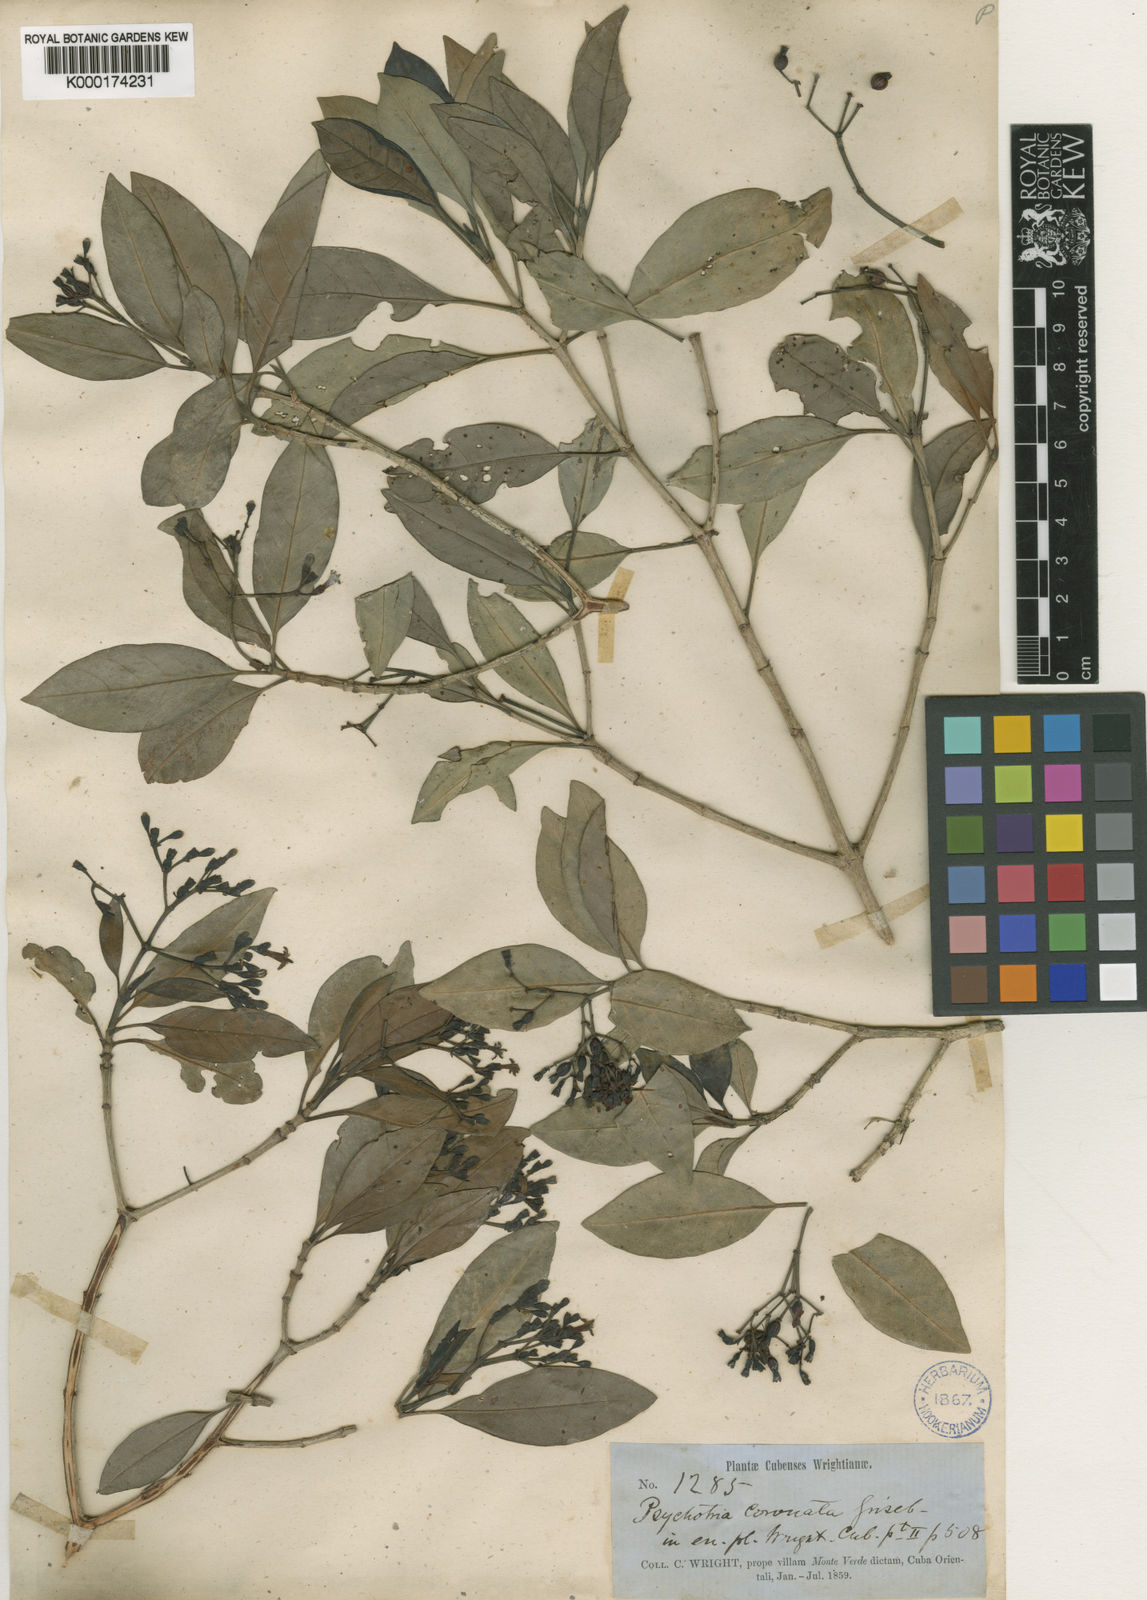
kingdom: Plantae
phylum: Tracheophyta
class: Magnoliopsida
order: Gentianales
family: Rubiaceae
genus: Psychotria
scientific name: Psychotria revoluta
